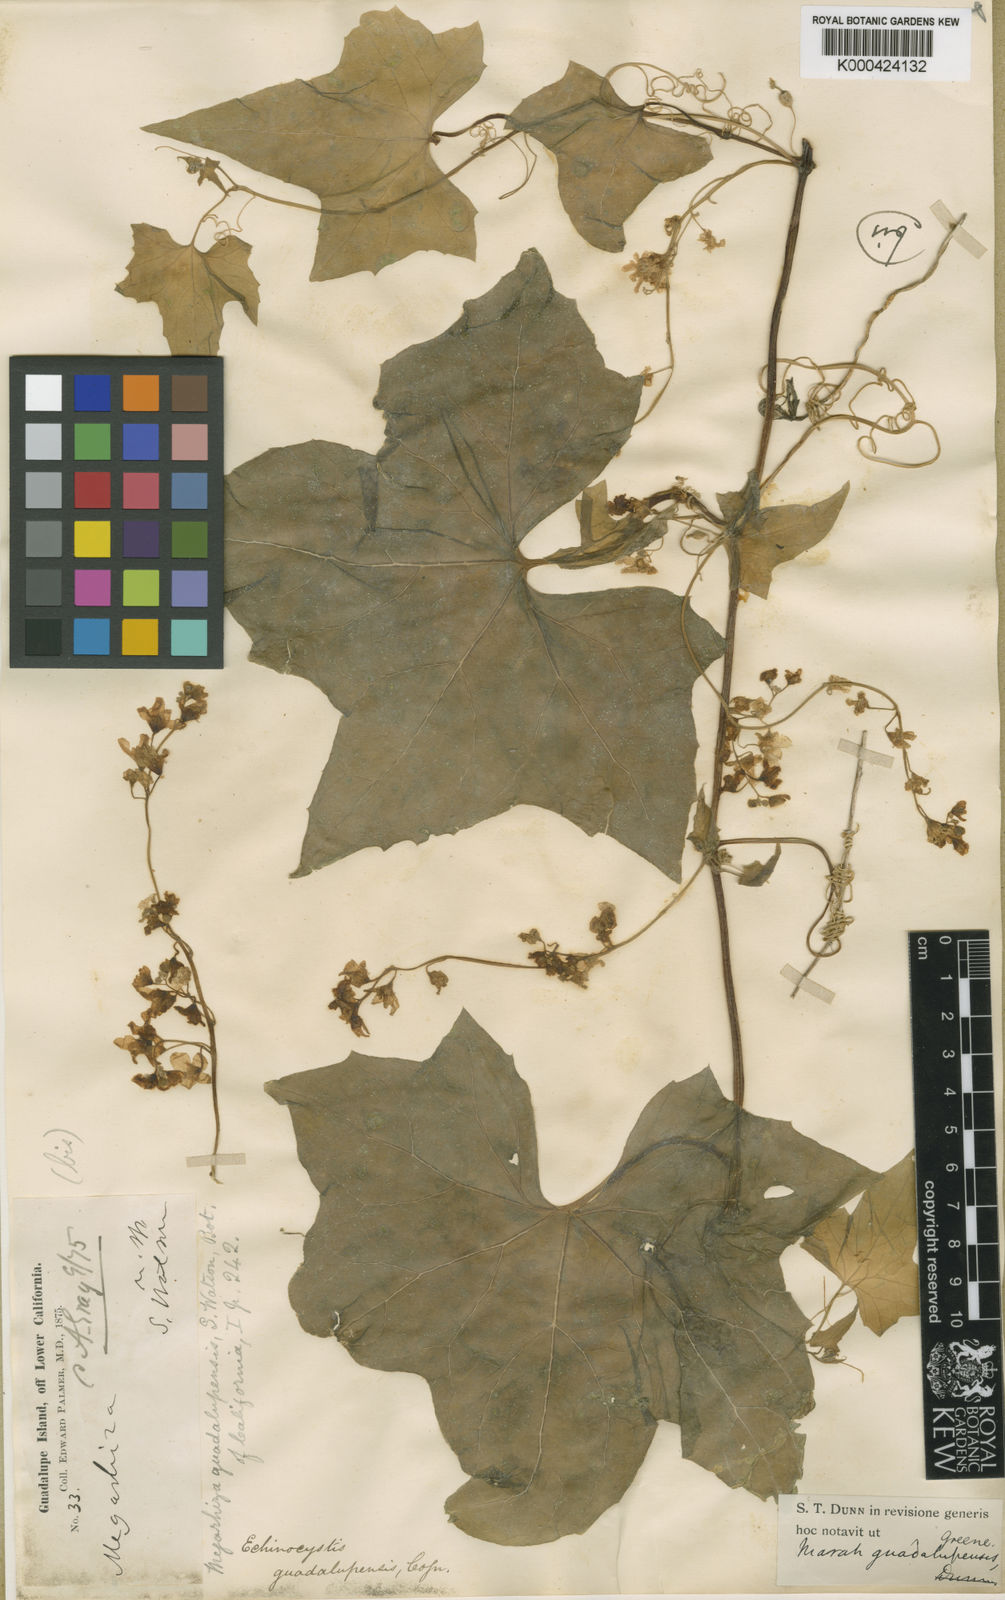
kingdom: Plantae
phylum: Tracheophyta
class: Magnoliopsida
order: Cucurbitales
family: Cucurbitaceae
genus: Marah
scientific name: Marah guadalupensis
